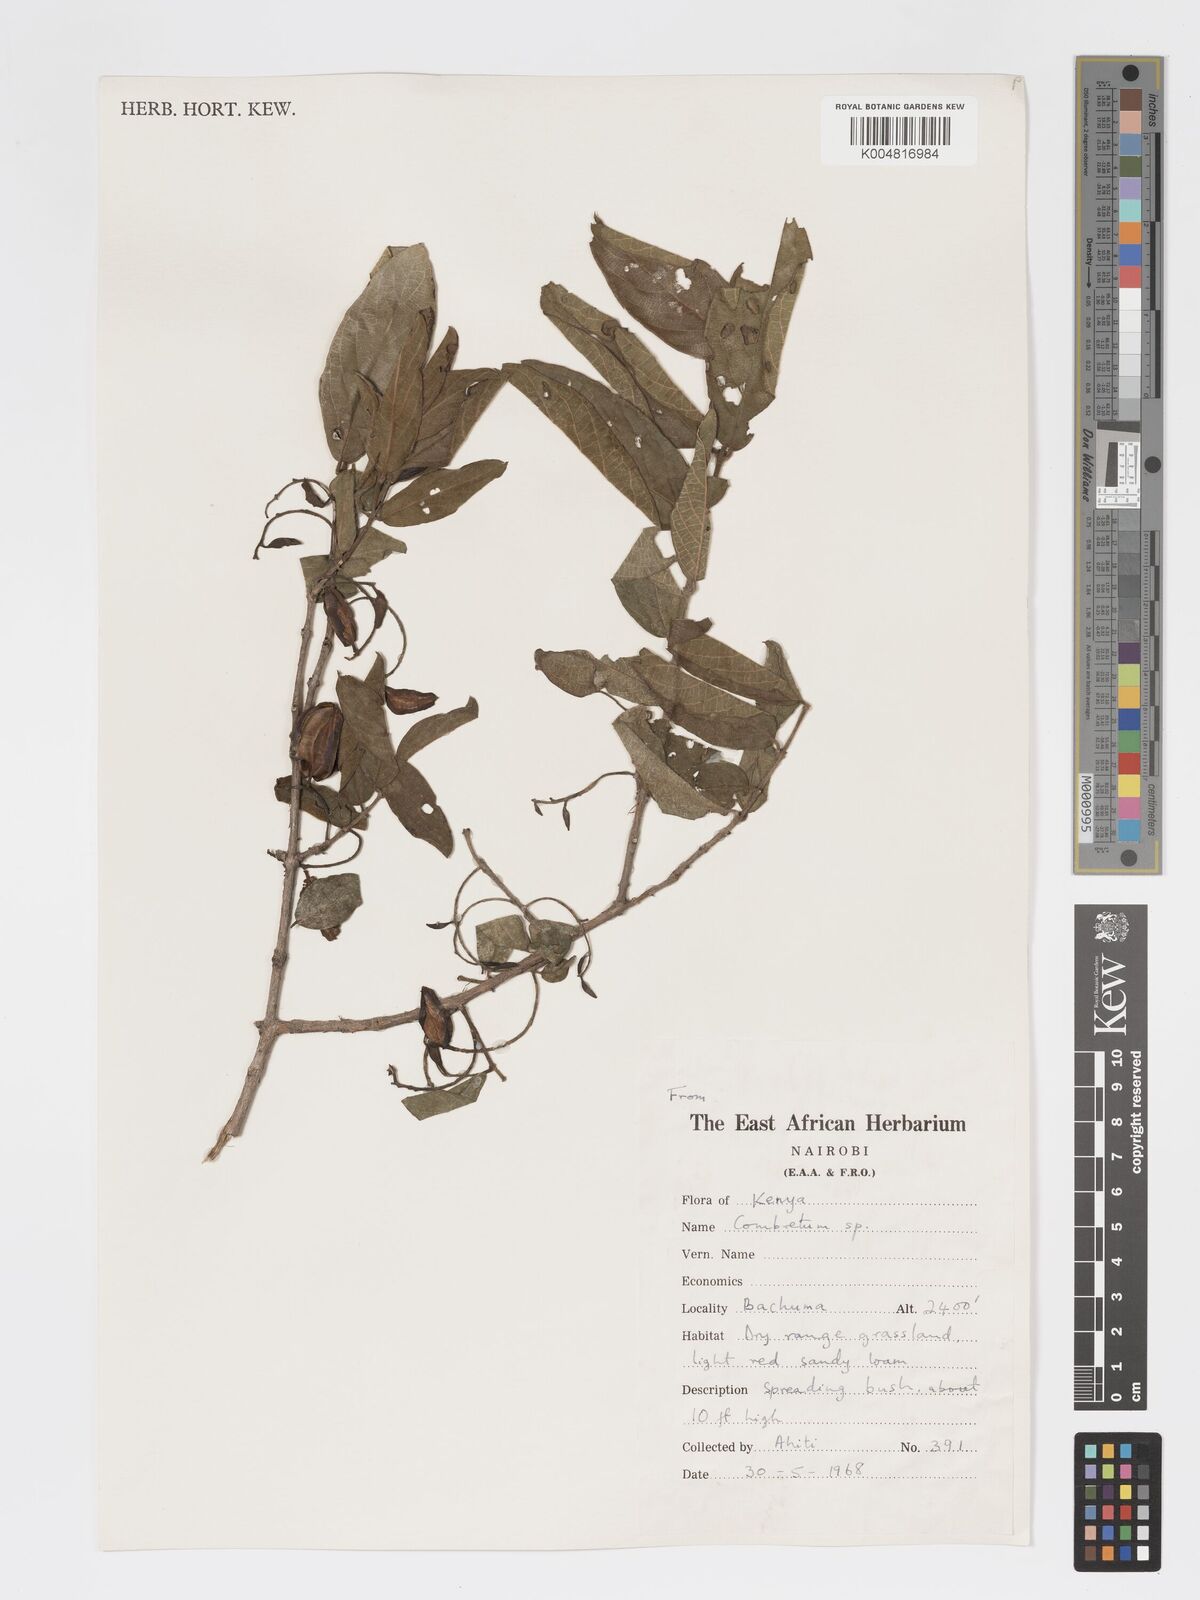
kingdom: Plantae
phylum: Tracheophyta
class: Magnoliopsida
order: Myrtales
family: Combretaceae
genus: Combretum
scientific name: Combretum apiculatum
